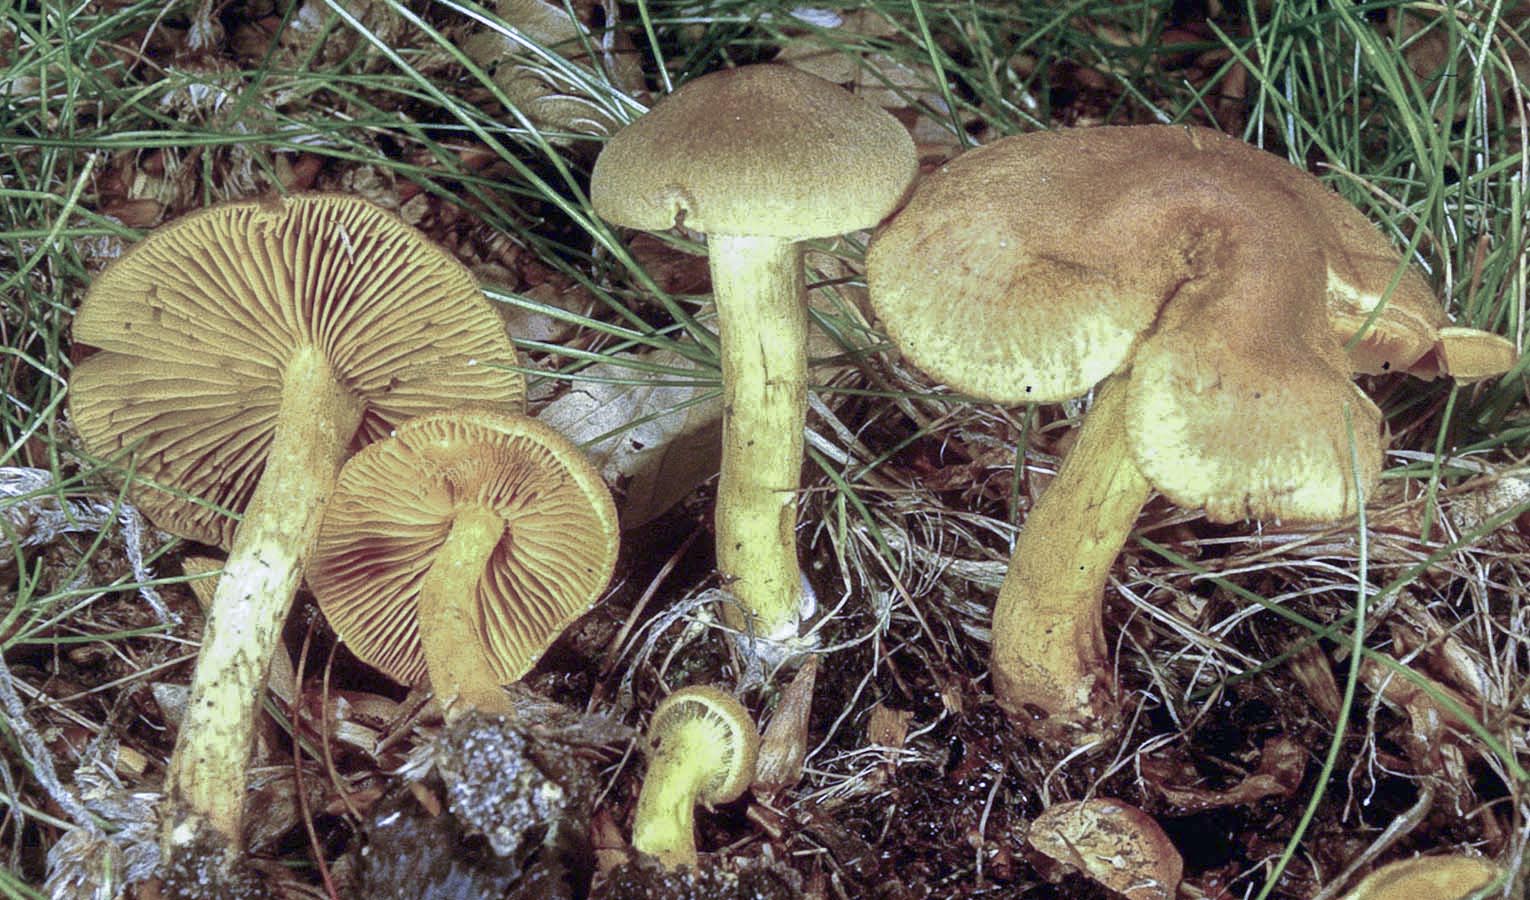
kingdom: Fungi
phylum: Basidiomycota
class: Agaricomycetes
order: Agaricales
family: Cortinariaceae
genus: Cortinarius
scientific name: Cortinarius venetus
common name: olivengrøn slørhat
